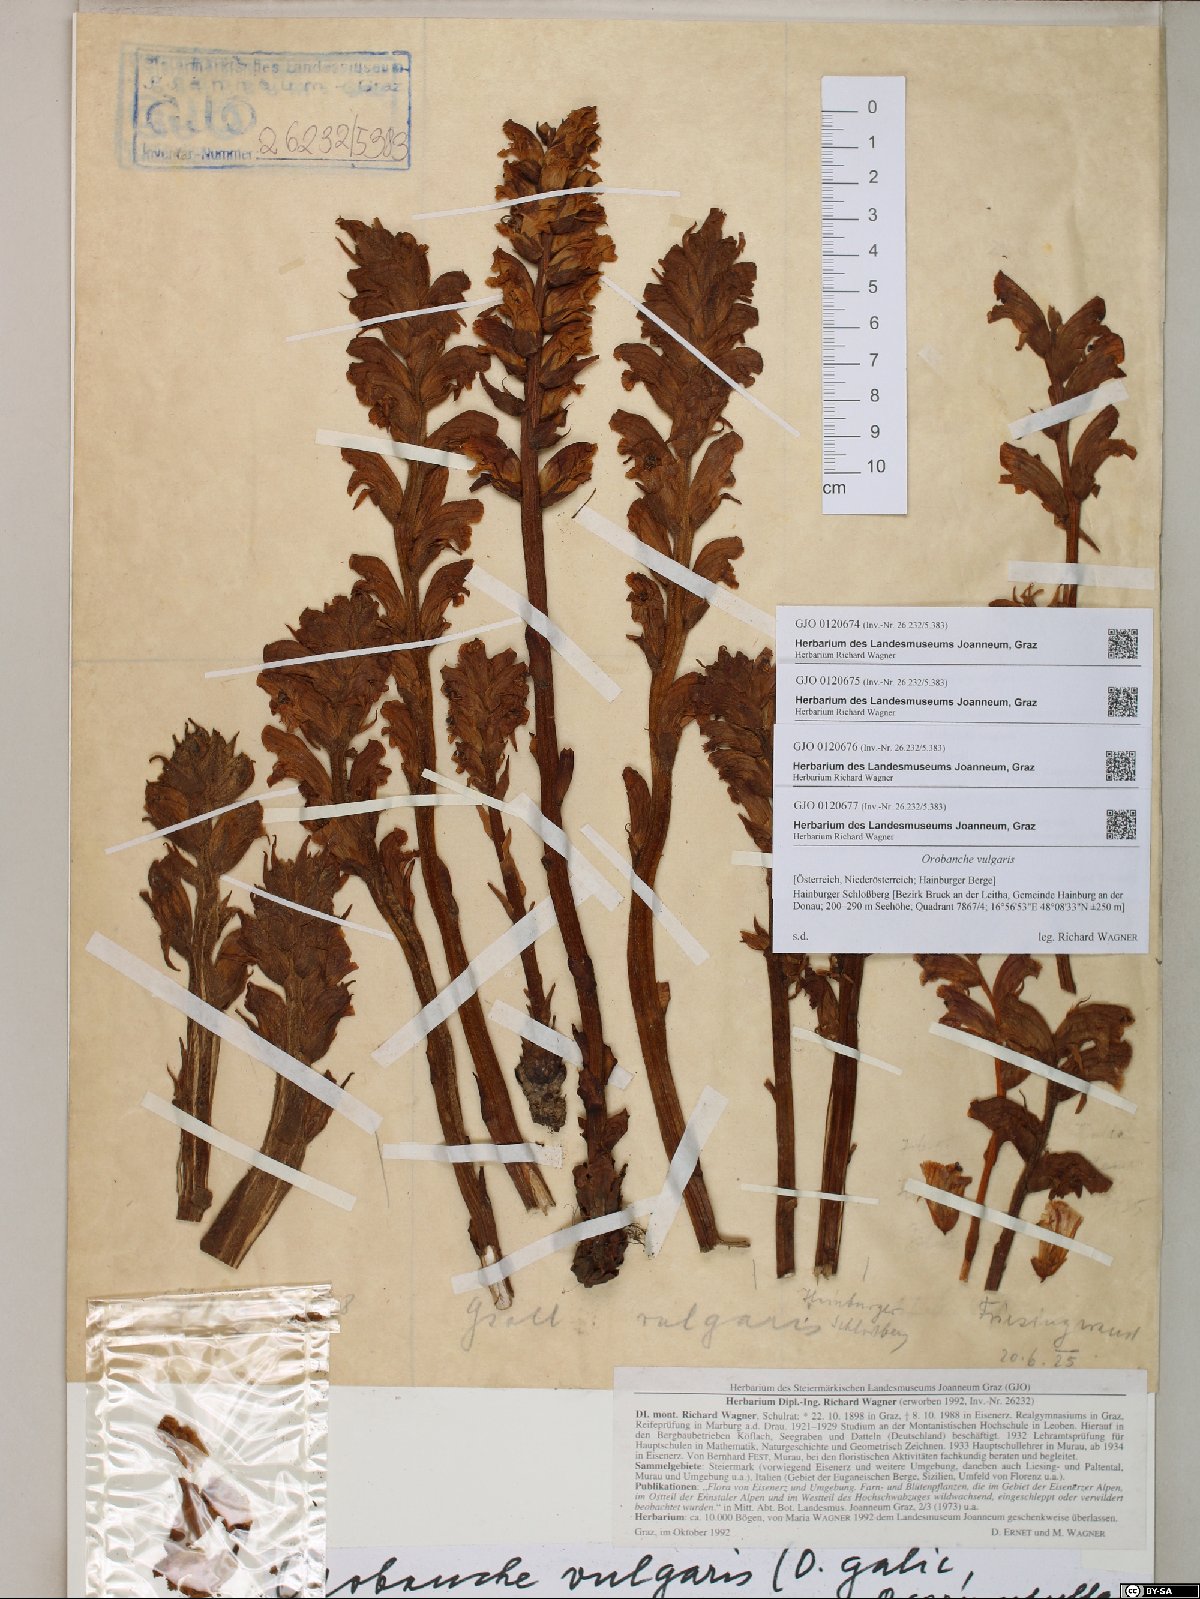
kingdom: Plantae
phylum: Tracheophyta
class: Magnoliopsida
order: Lamiales
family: Orobanchaceae
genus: Orobanche
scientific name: Orobanche caryophyllacea
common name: Bedstraw broomrape
